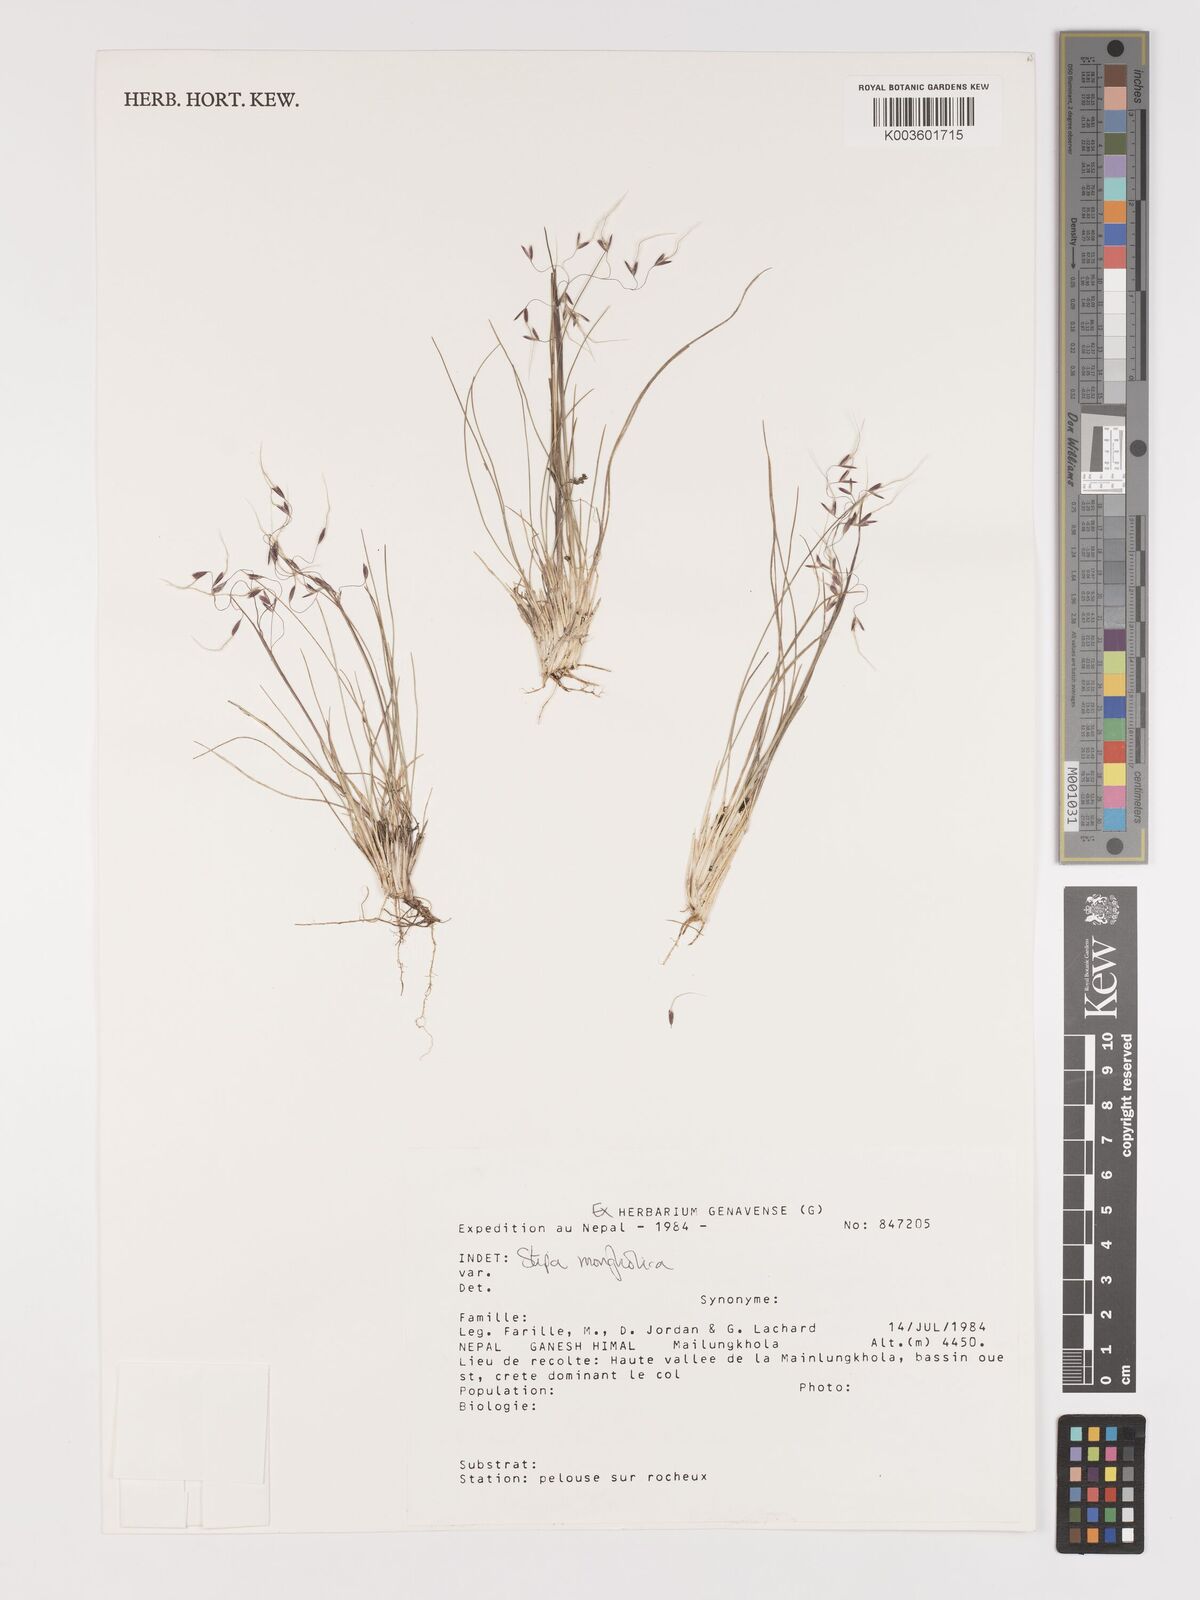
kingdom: Plantae
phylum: Tracheophyta
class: Liliopsida
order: Poales
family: Poaceae
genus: Ptilagrostis
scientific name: Ptilagrostis mongholica
